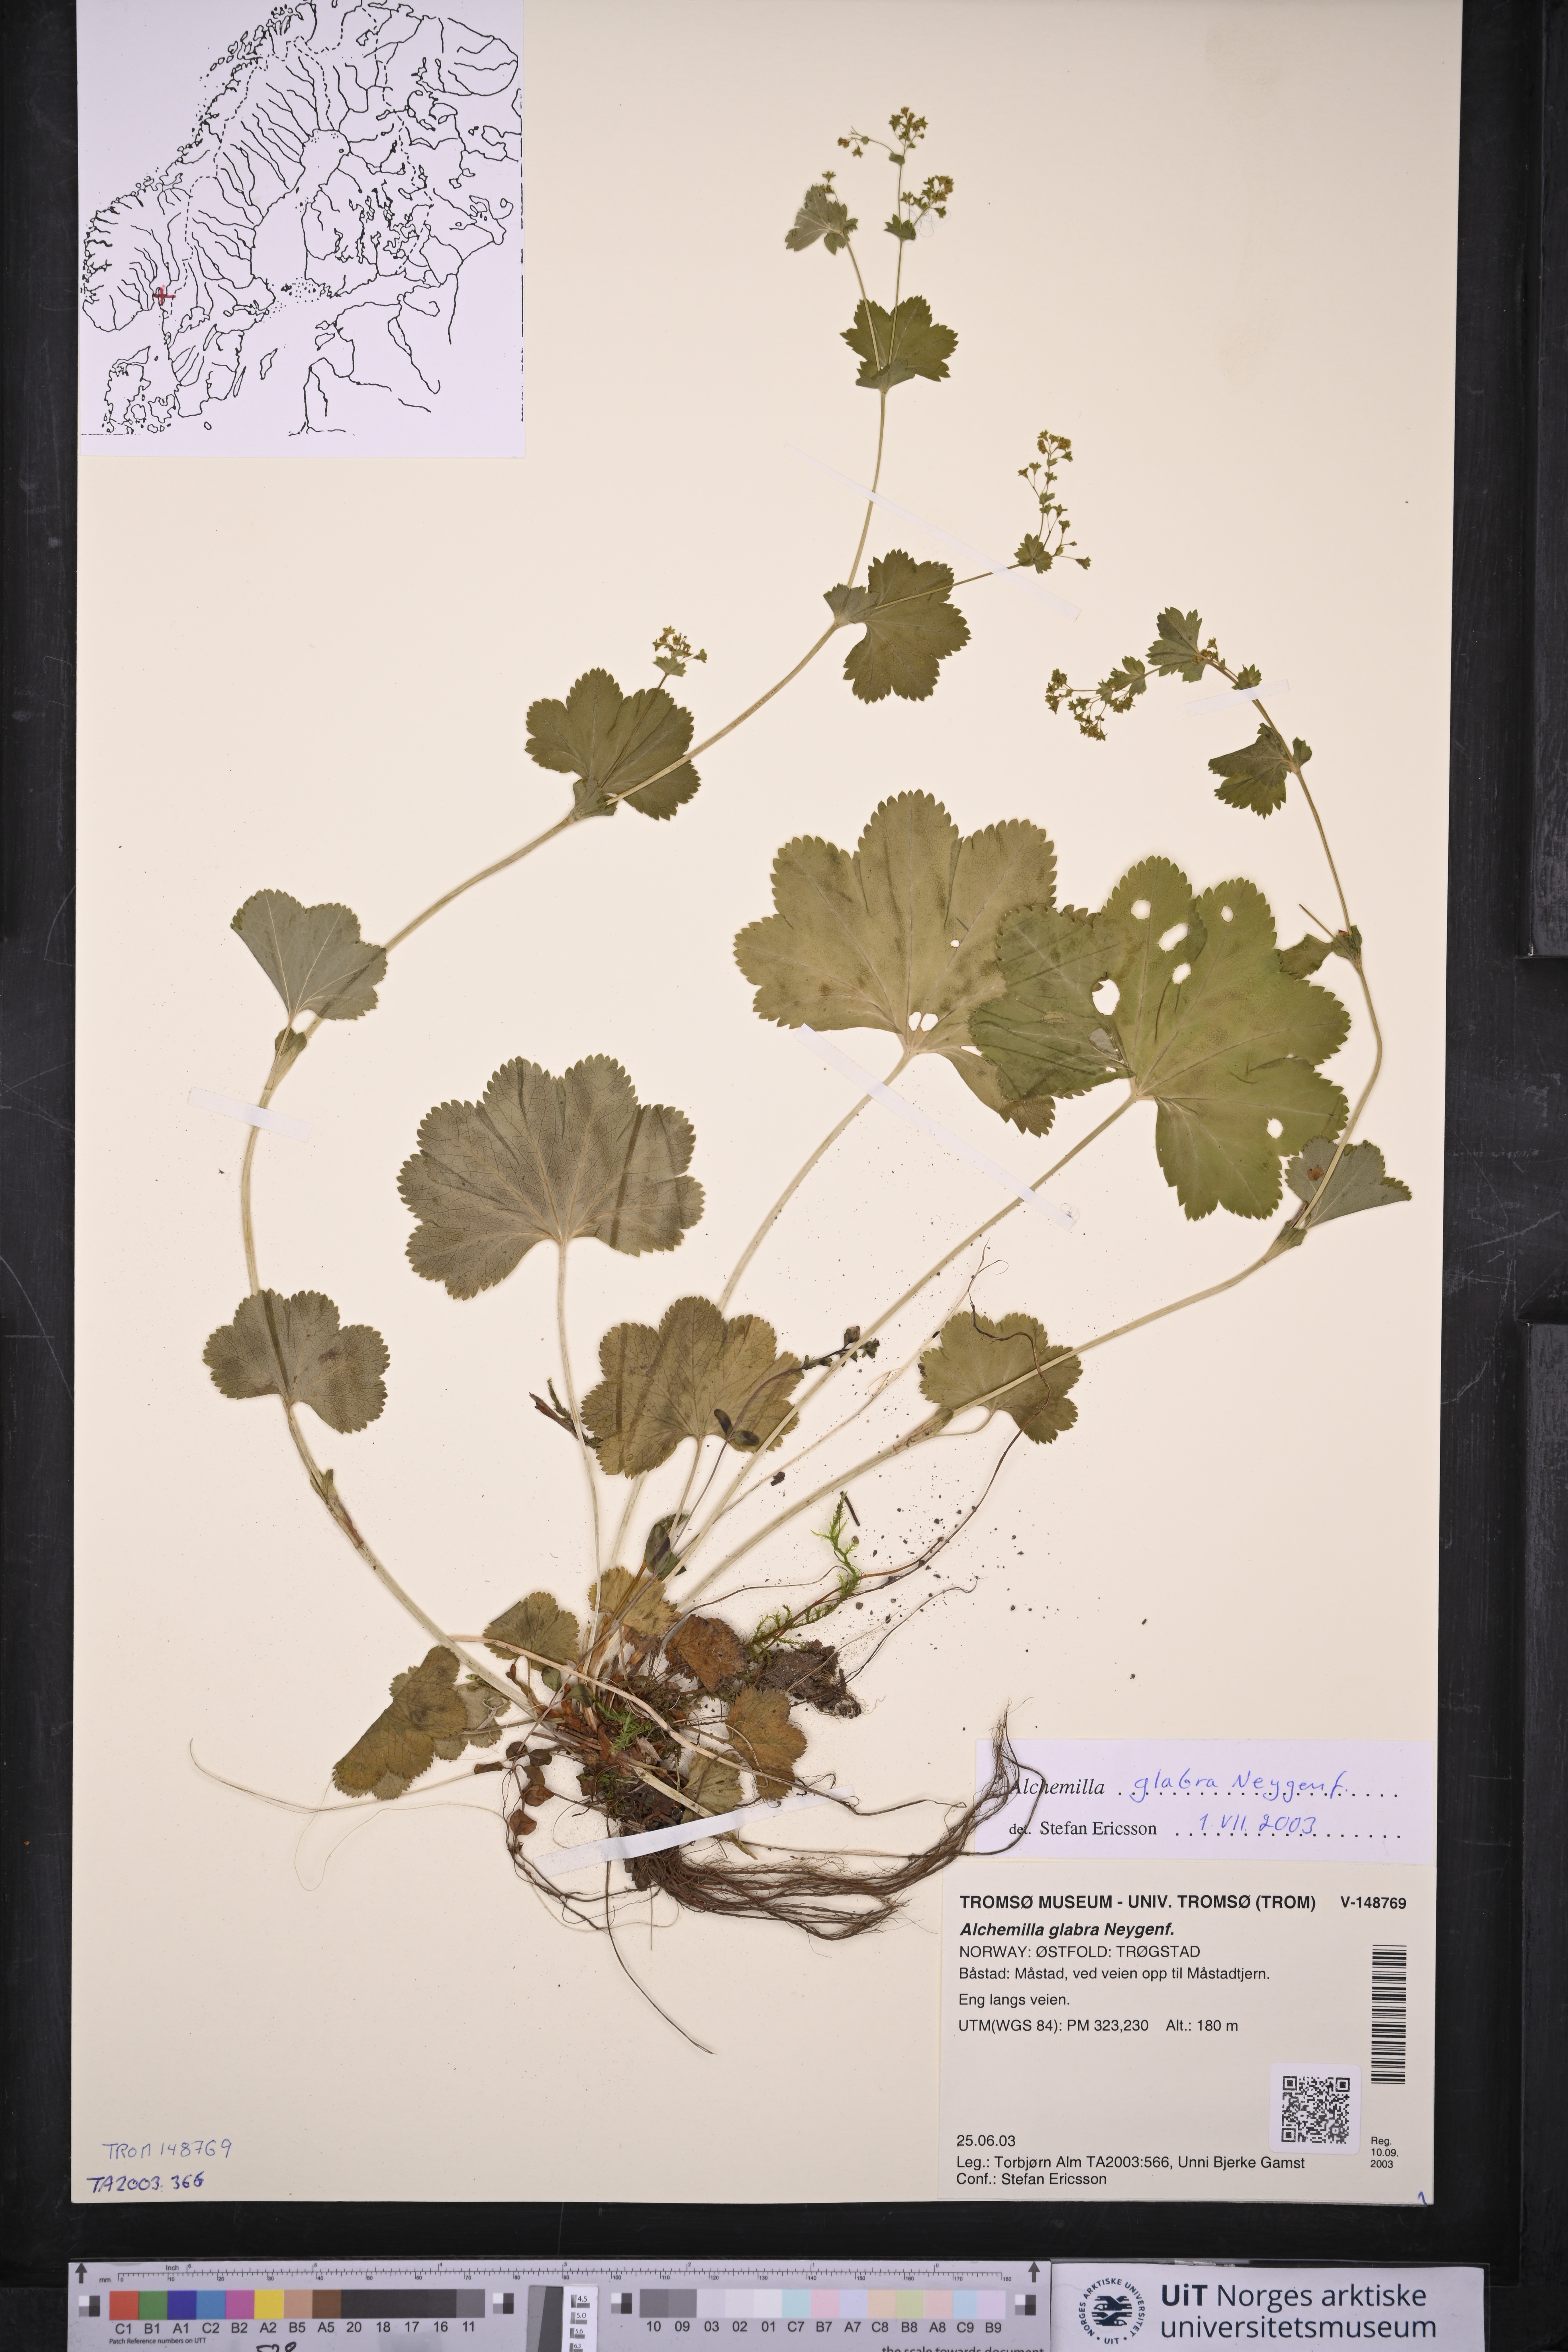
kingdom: Plantae
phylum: Tracheophyta
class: Magnoliopsida
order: Rosales
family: Rosaceae
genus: Alchemilla
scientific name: Alchemilla glabra
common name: Smooth lady's-mantle
